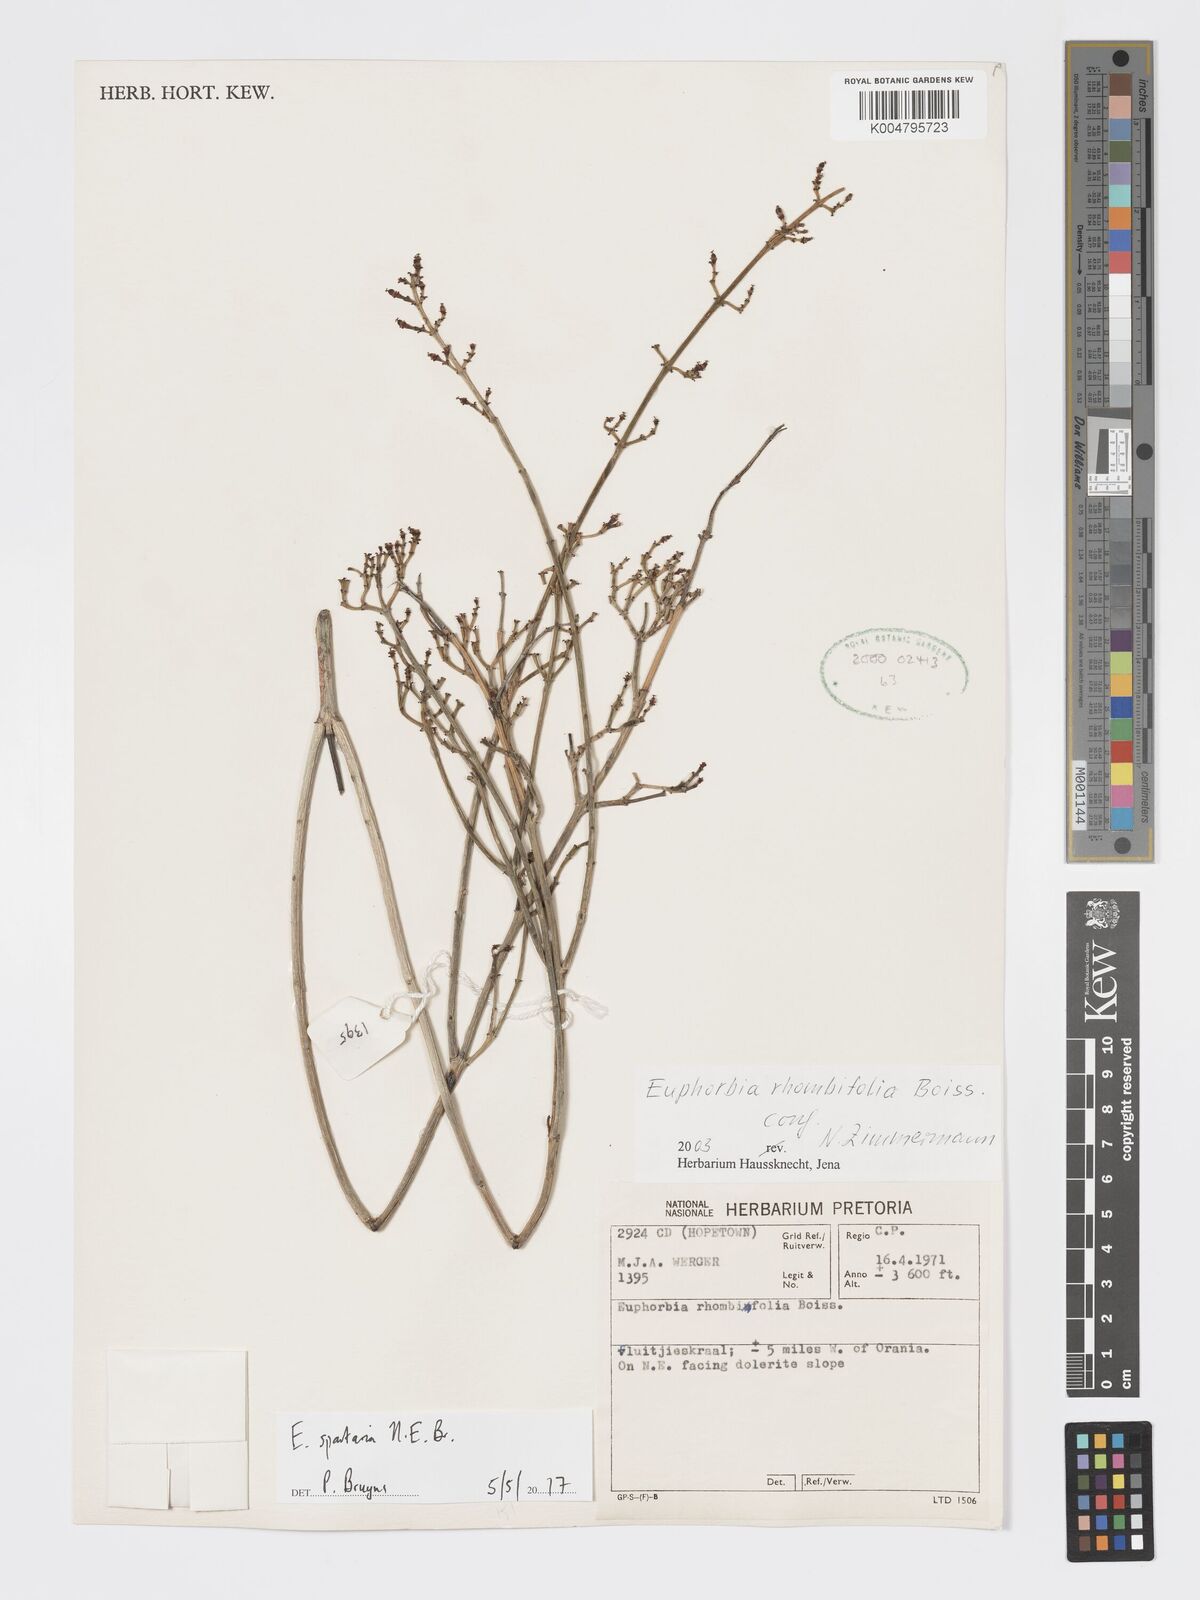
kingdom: Plantae
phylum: Tracheophyta
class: Magnoliopsida
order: Malpighiales
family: Euphorbiaceae
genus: Euphorbia
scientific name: Euphorbia spartaria
